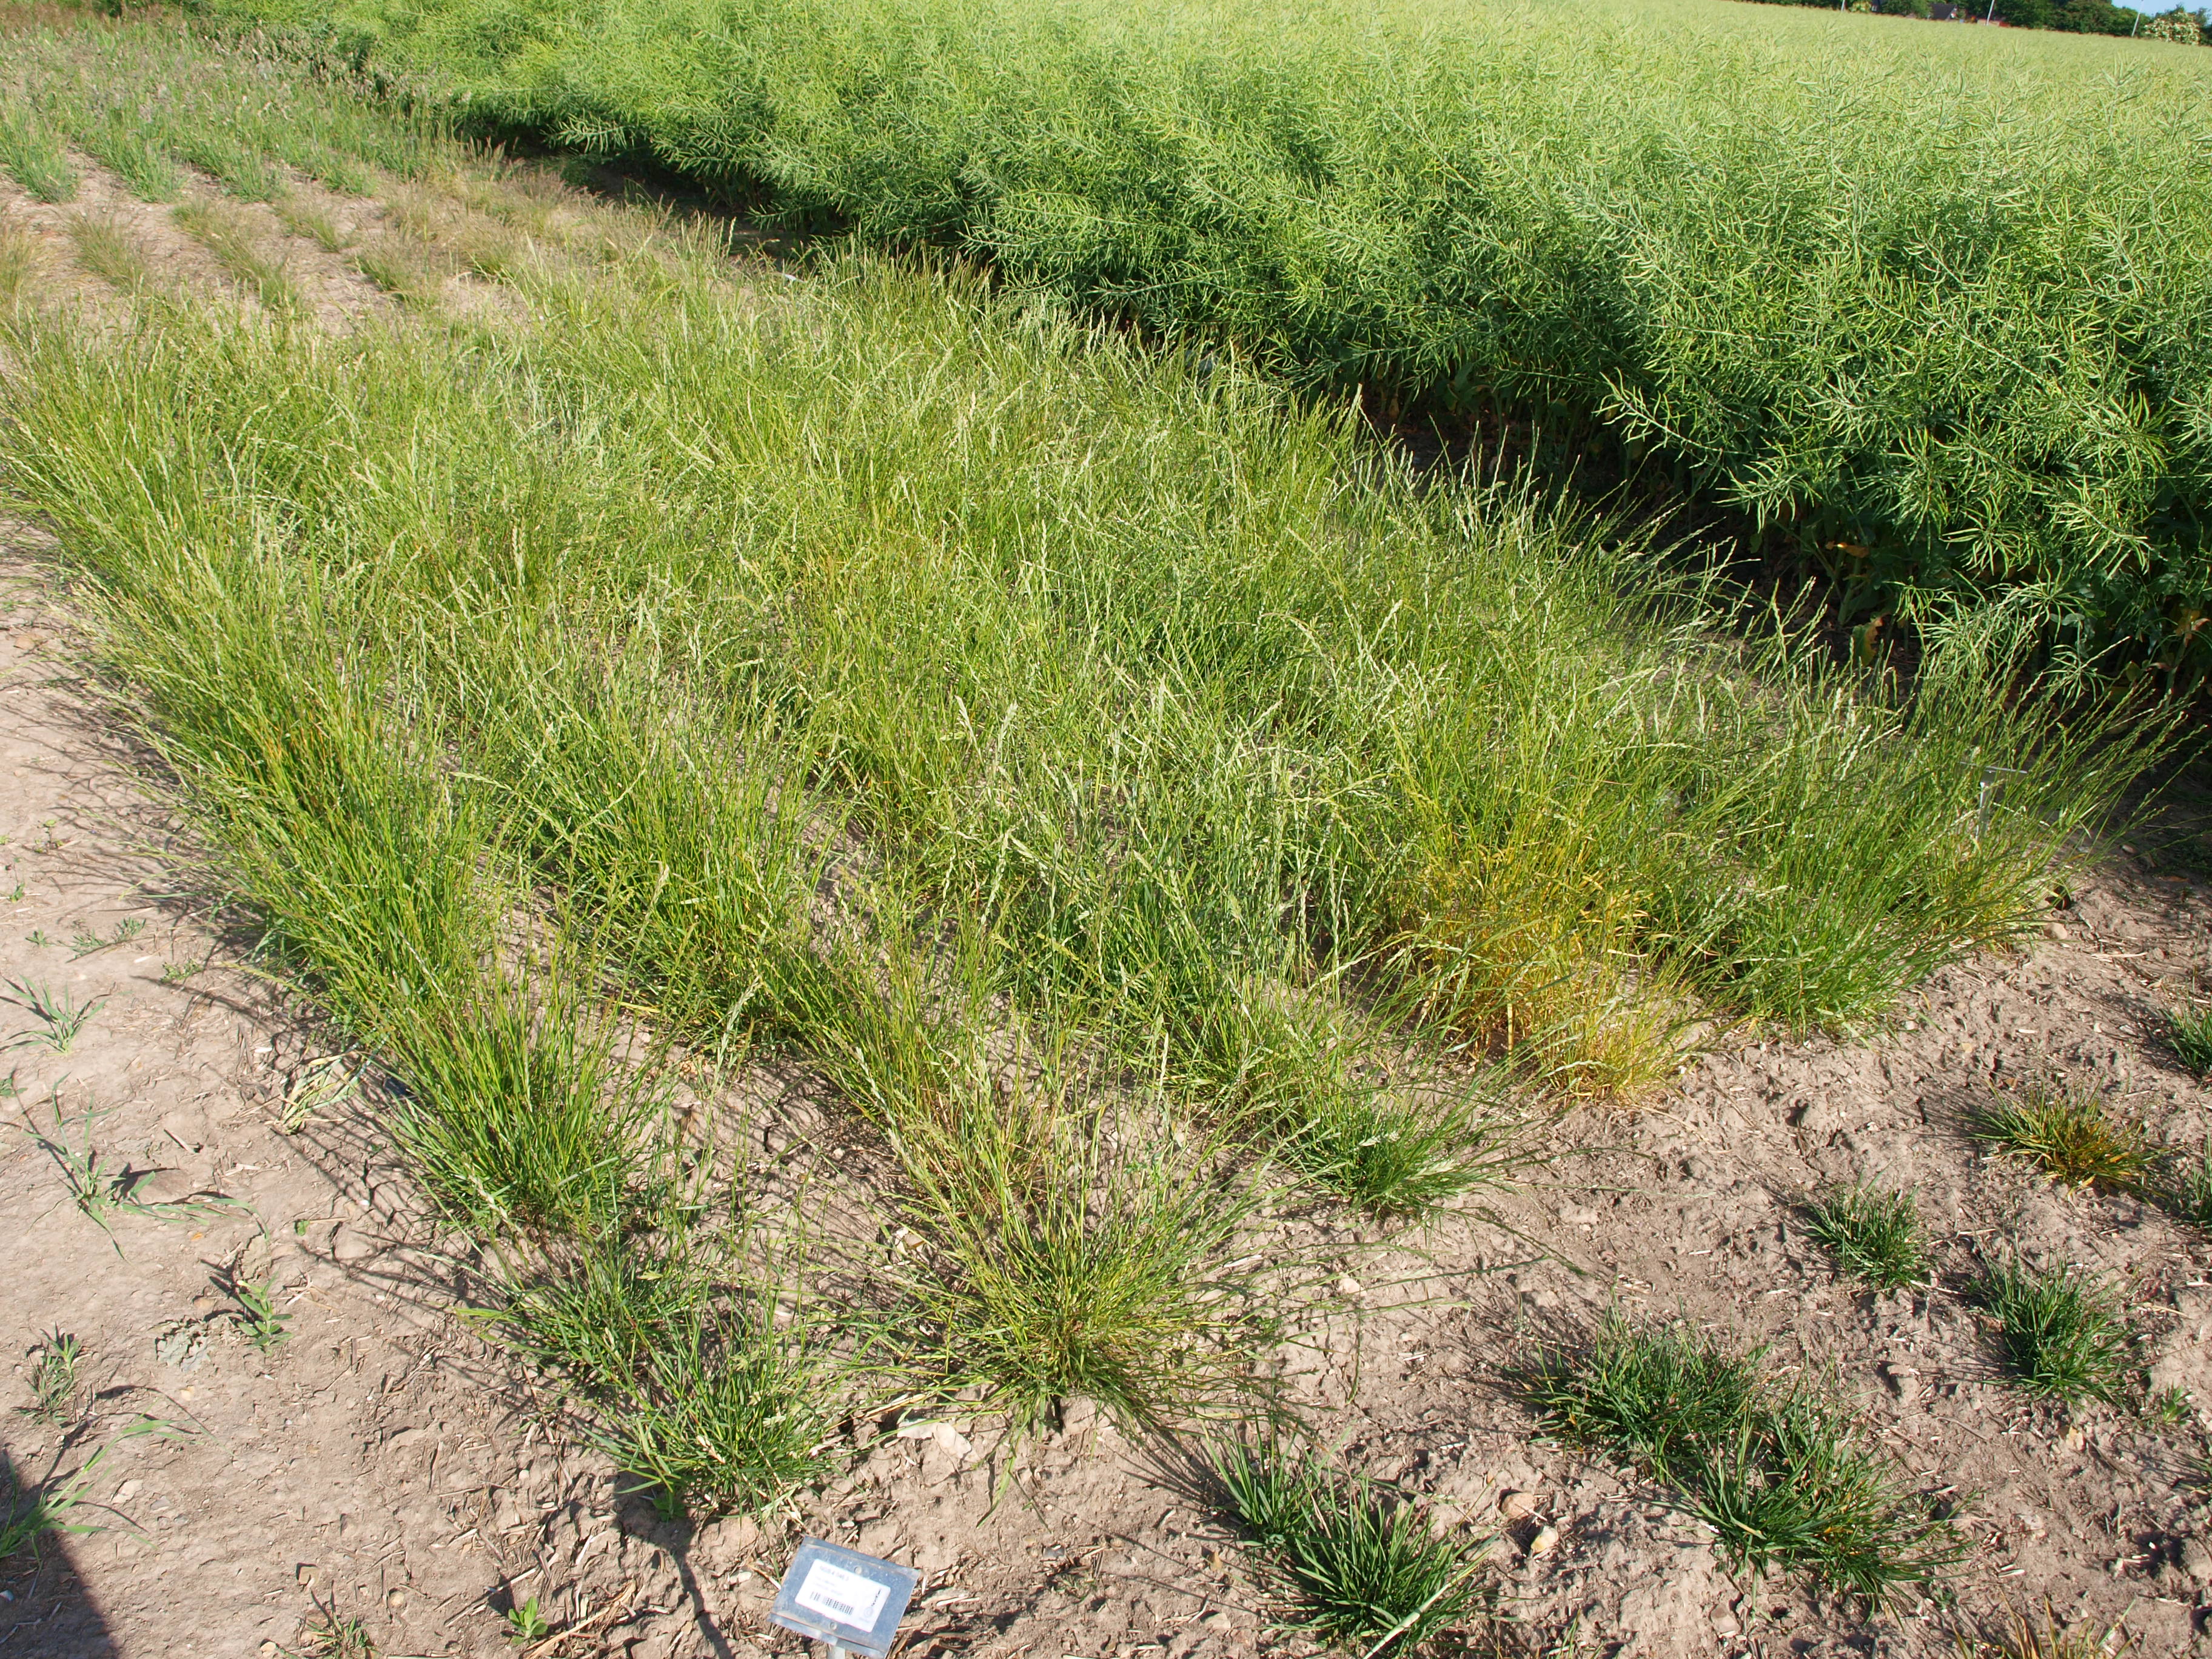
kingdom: Plantae
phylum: Tracheophyta
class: Liliopsida
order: Poales
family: Poaceae
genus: Lolium
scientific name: Lolium perenne
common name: Perennial ryegrass
